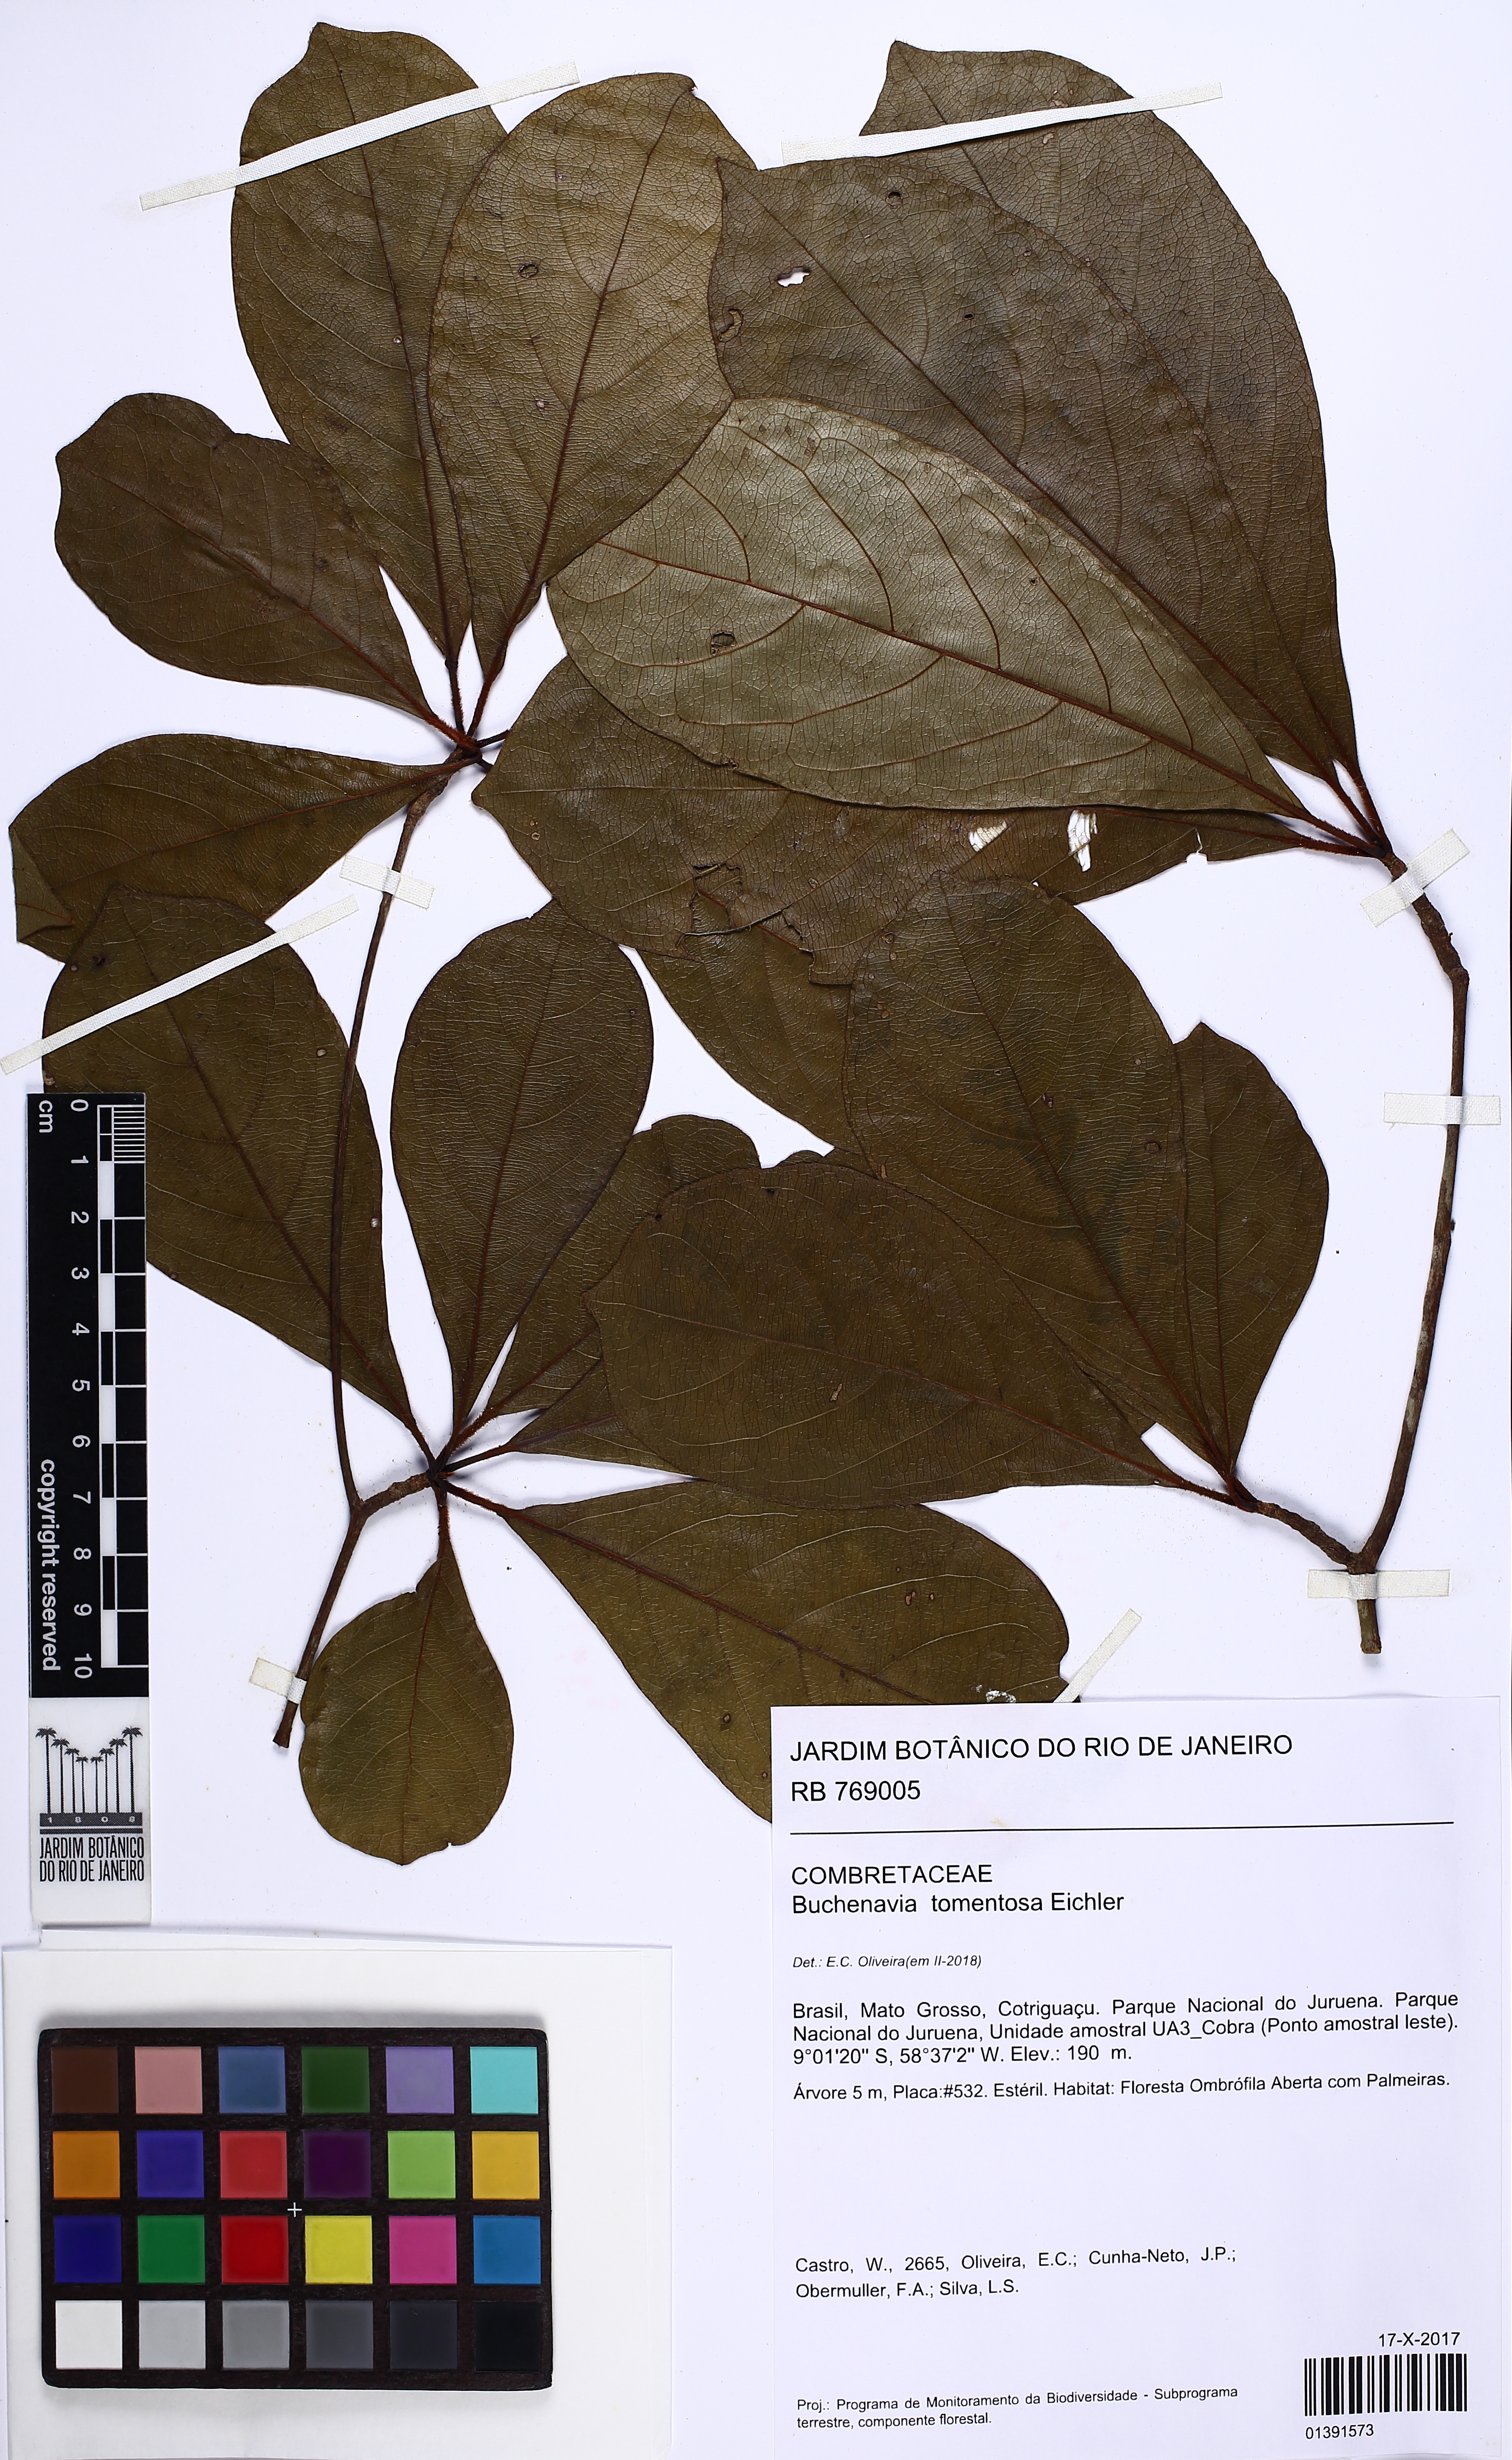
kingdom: Plantae
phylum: Tracheophyta
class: Magnoliopsida
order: Myrtales
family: Combretaceae
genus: Terminalia
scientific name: Terminalia corrugata
